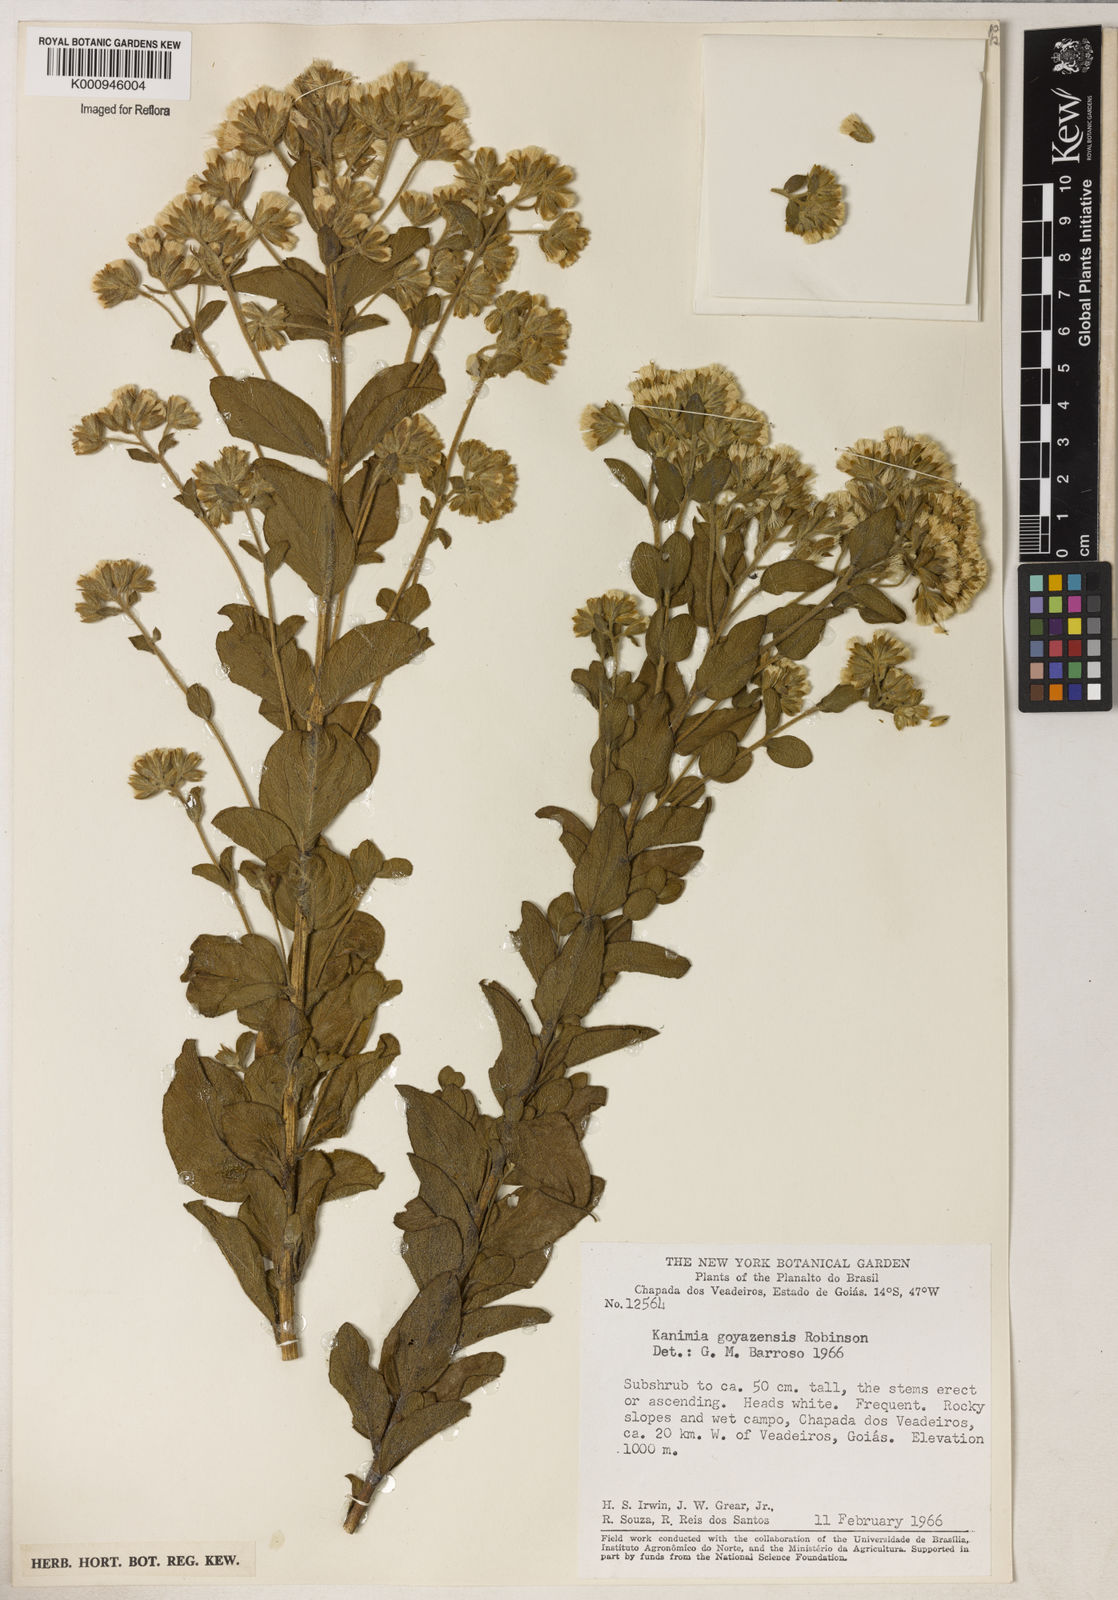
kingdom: Plantae
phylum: Tracheophyta
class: Magnoliopsida
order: Asterales
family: Asteraceae
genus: Mikania
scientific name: Mikania goyazensis
